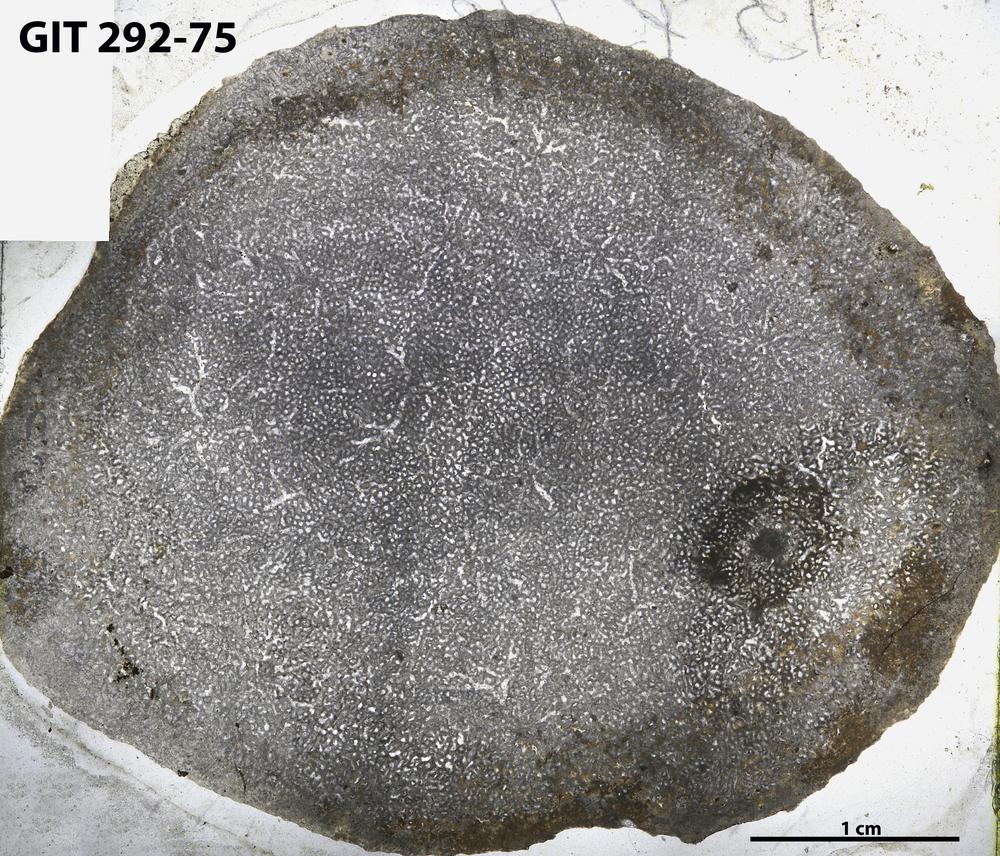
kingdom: Animalia
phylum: Porifera
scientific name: Porifera
